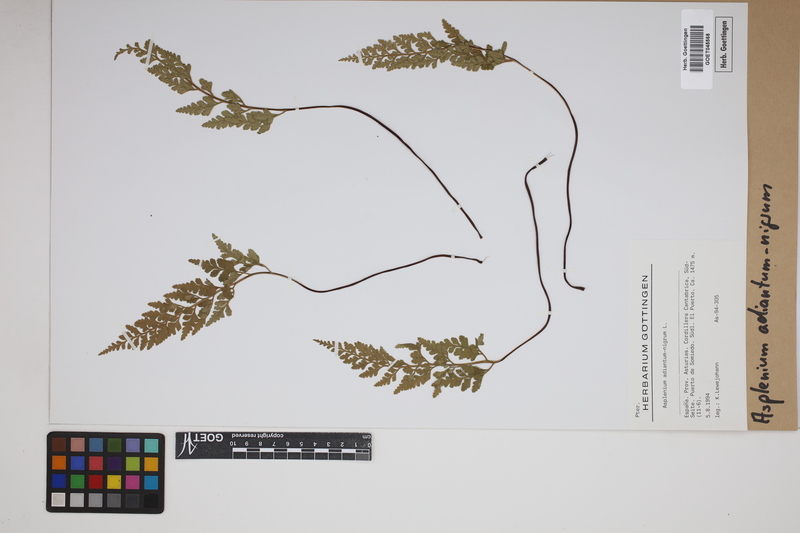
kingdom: Plantae
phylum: Tracheophyta
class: Polypodiopsida
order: Polypodiales
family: Aspleniaceae
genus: Asplenium
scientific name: Asplenium adiantum-nigrum
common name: Black spleenwort
